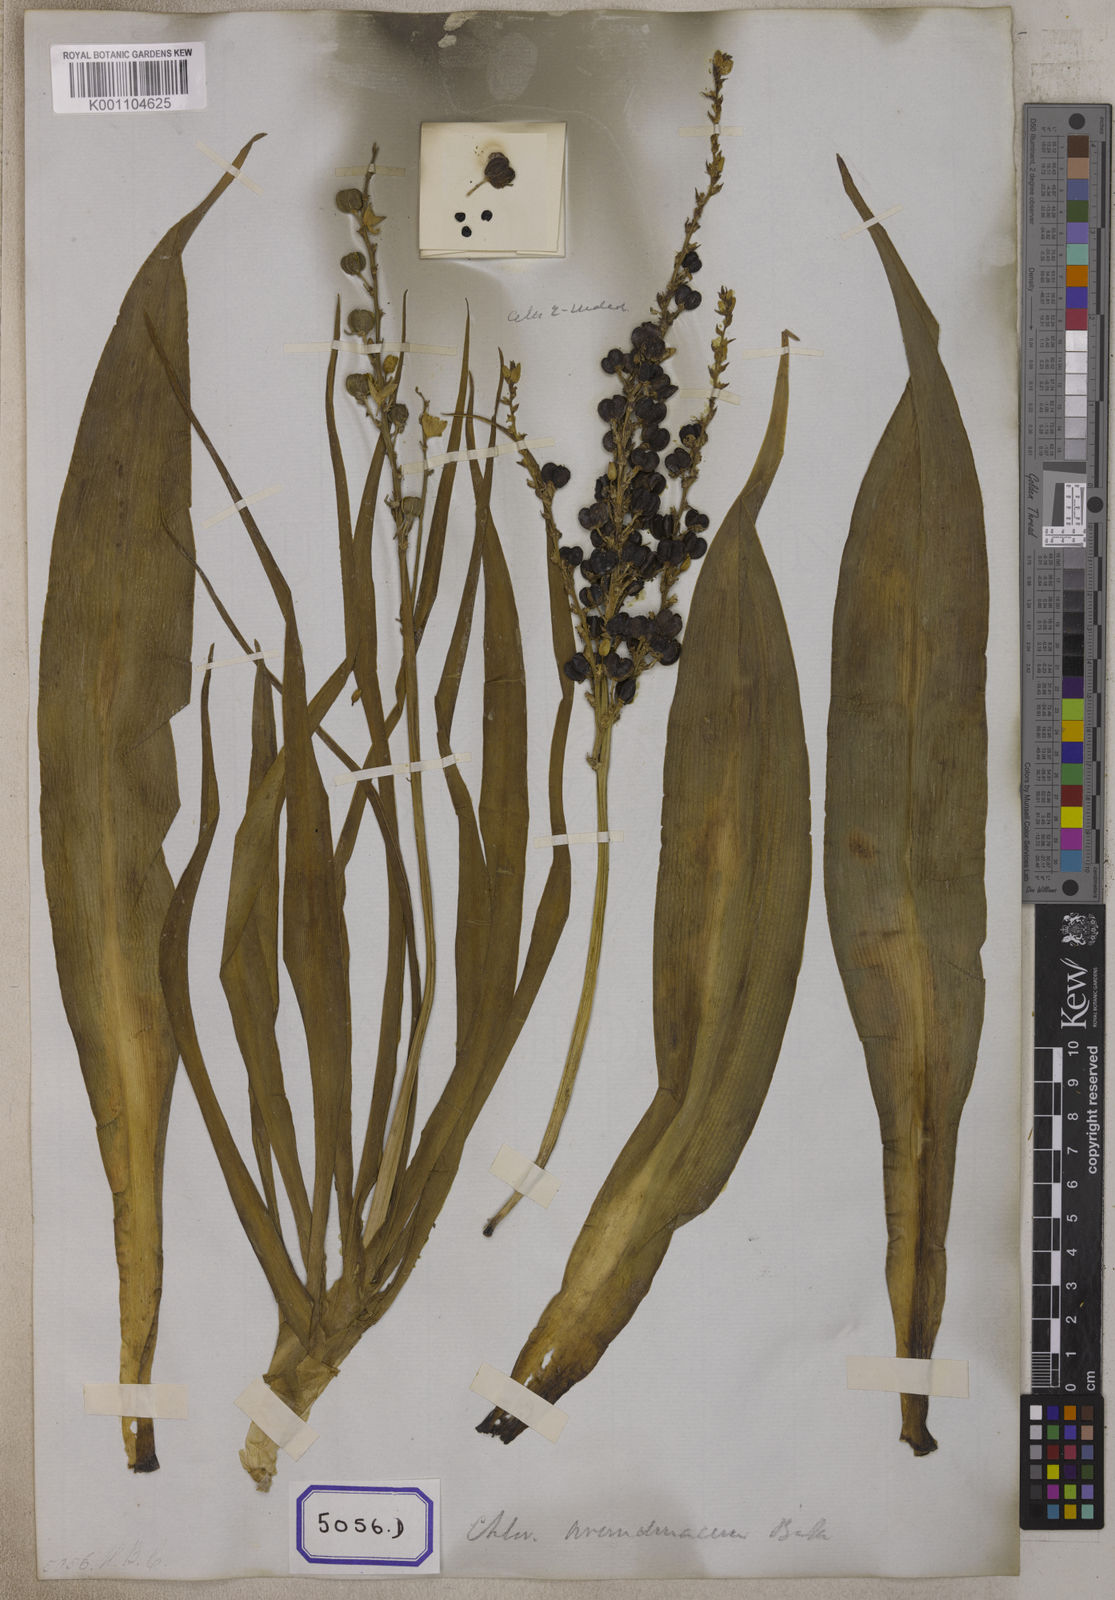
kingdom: Plantae
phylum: Tracheophyta
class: Liliopsida
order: Asparagales
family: Iridaceae
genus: Phalangium
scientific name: Phalangium
